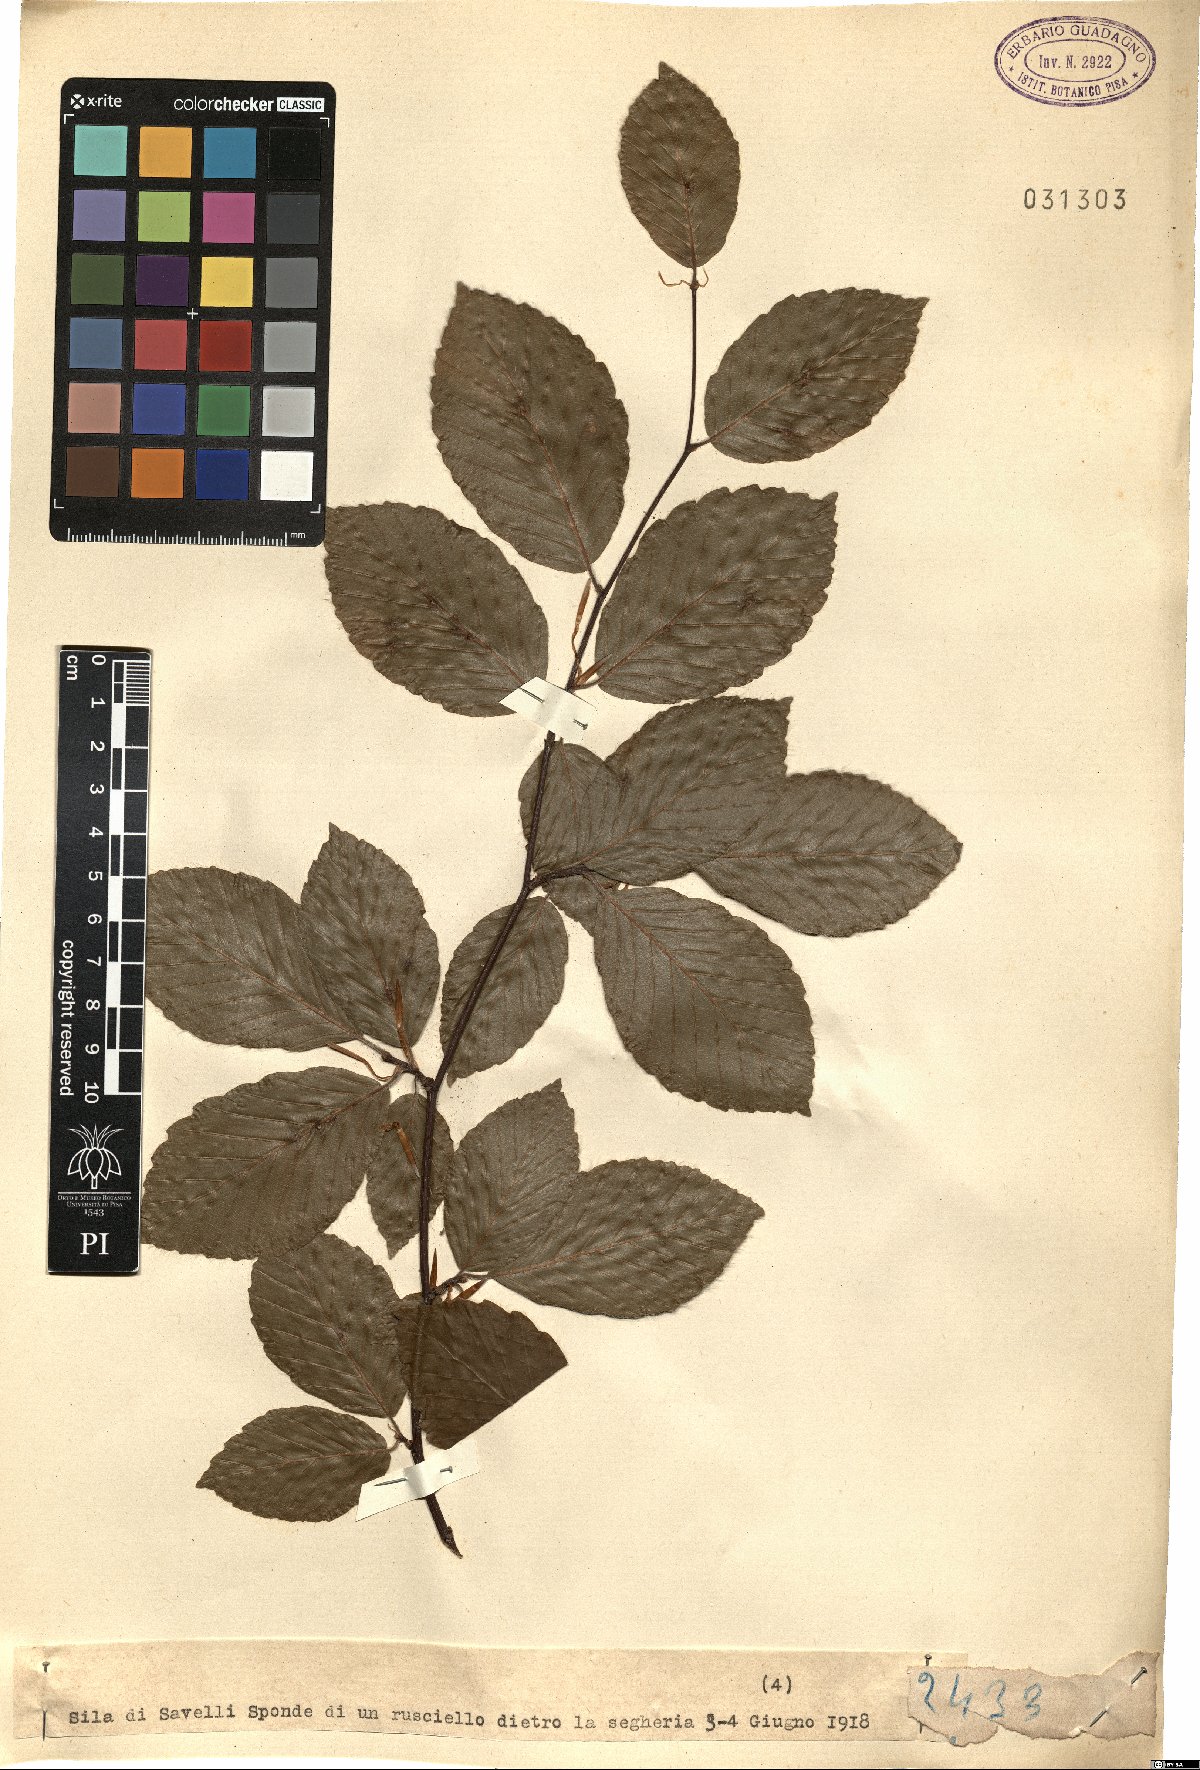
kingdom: Plantae
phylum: Tracheophyta
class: Magnoliopsida
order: Fagales
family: Fagaceae
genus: Fagus
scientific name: Fagus
